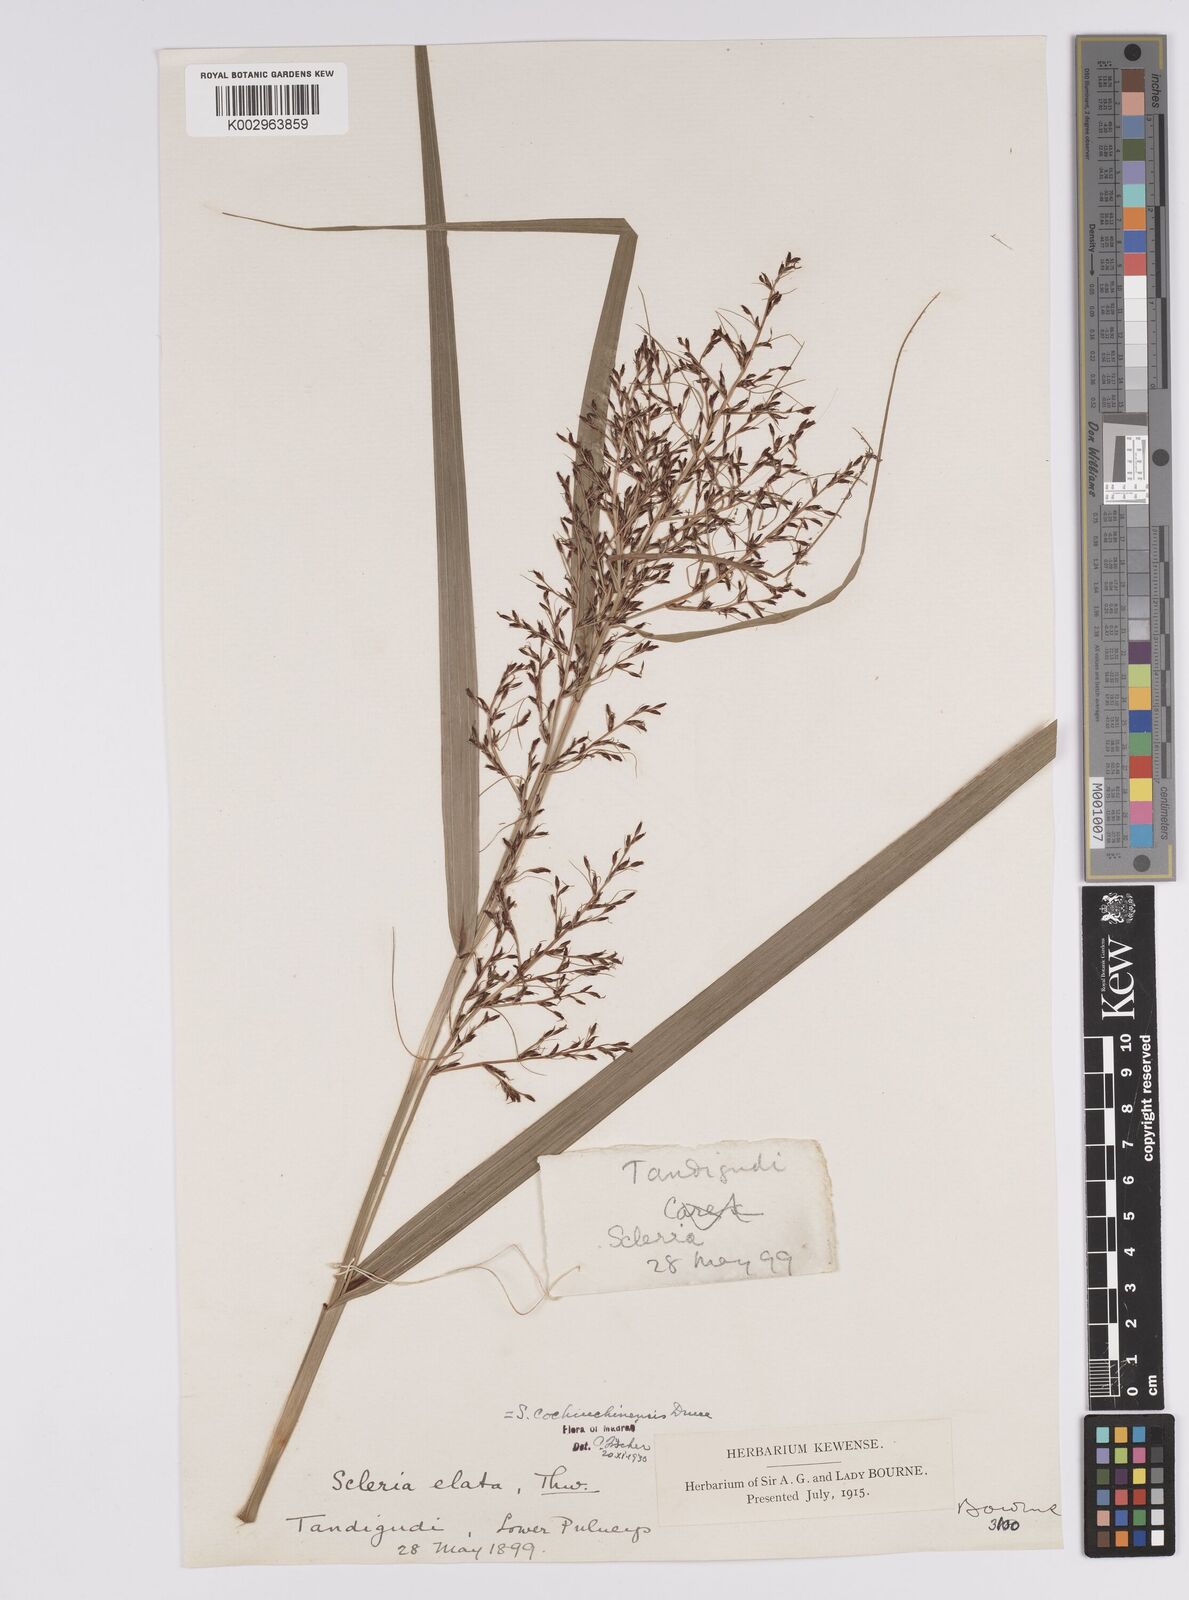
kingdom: Plantae
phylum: Tracheophyta
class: Liliopsida
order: Poales
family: Cyperaceae
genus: Scleria
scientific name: Scleria terrestris
